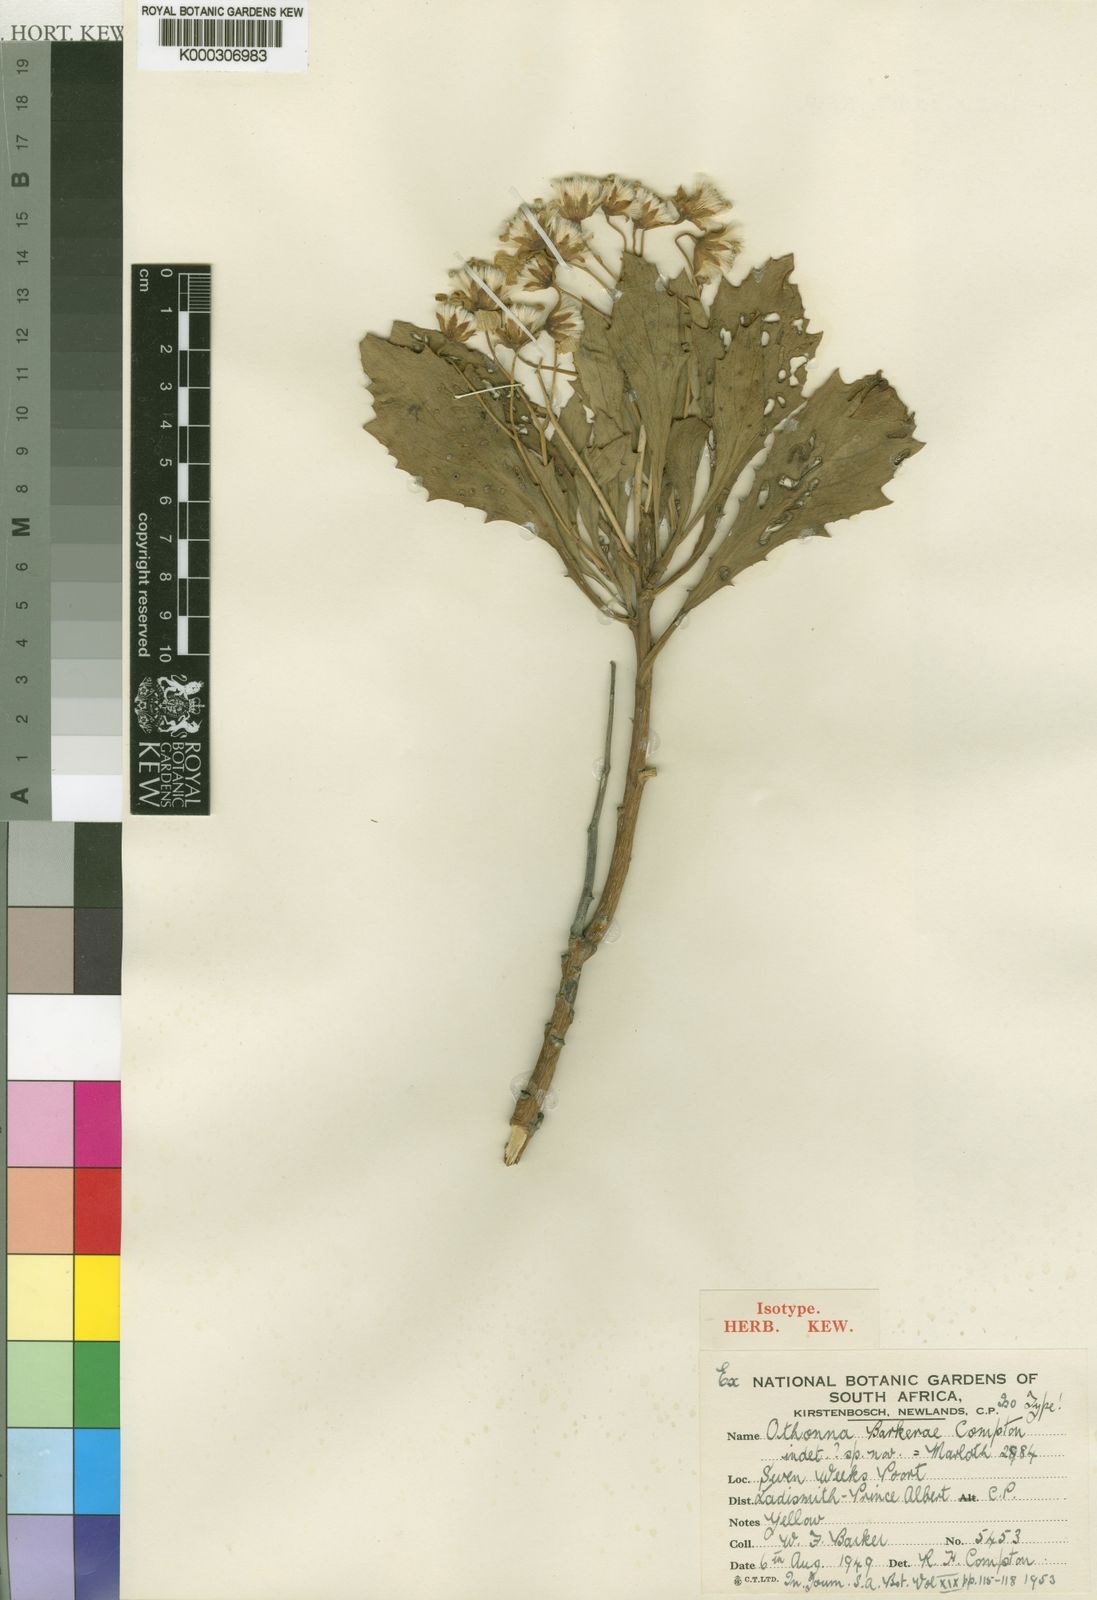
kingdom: Plantae
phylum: Tracheophyta
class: Magnoliopsida
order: Asterales
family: Asteraceae
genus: Othonna
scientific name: Othonna osteospermoides
